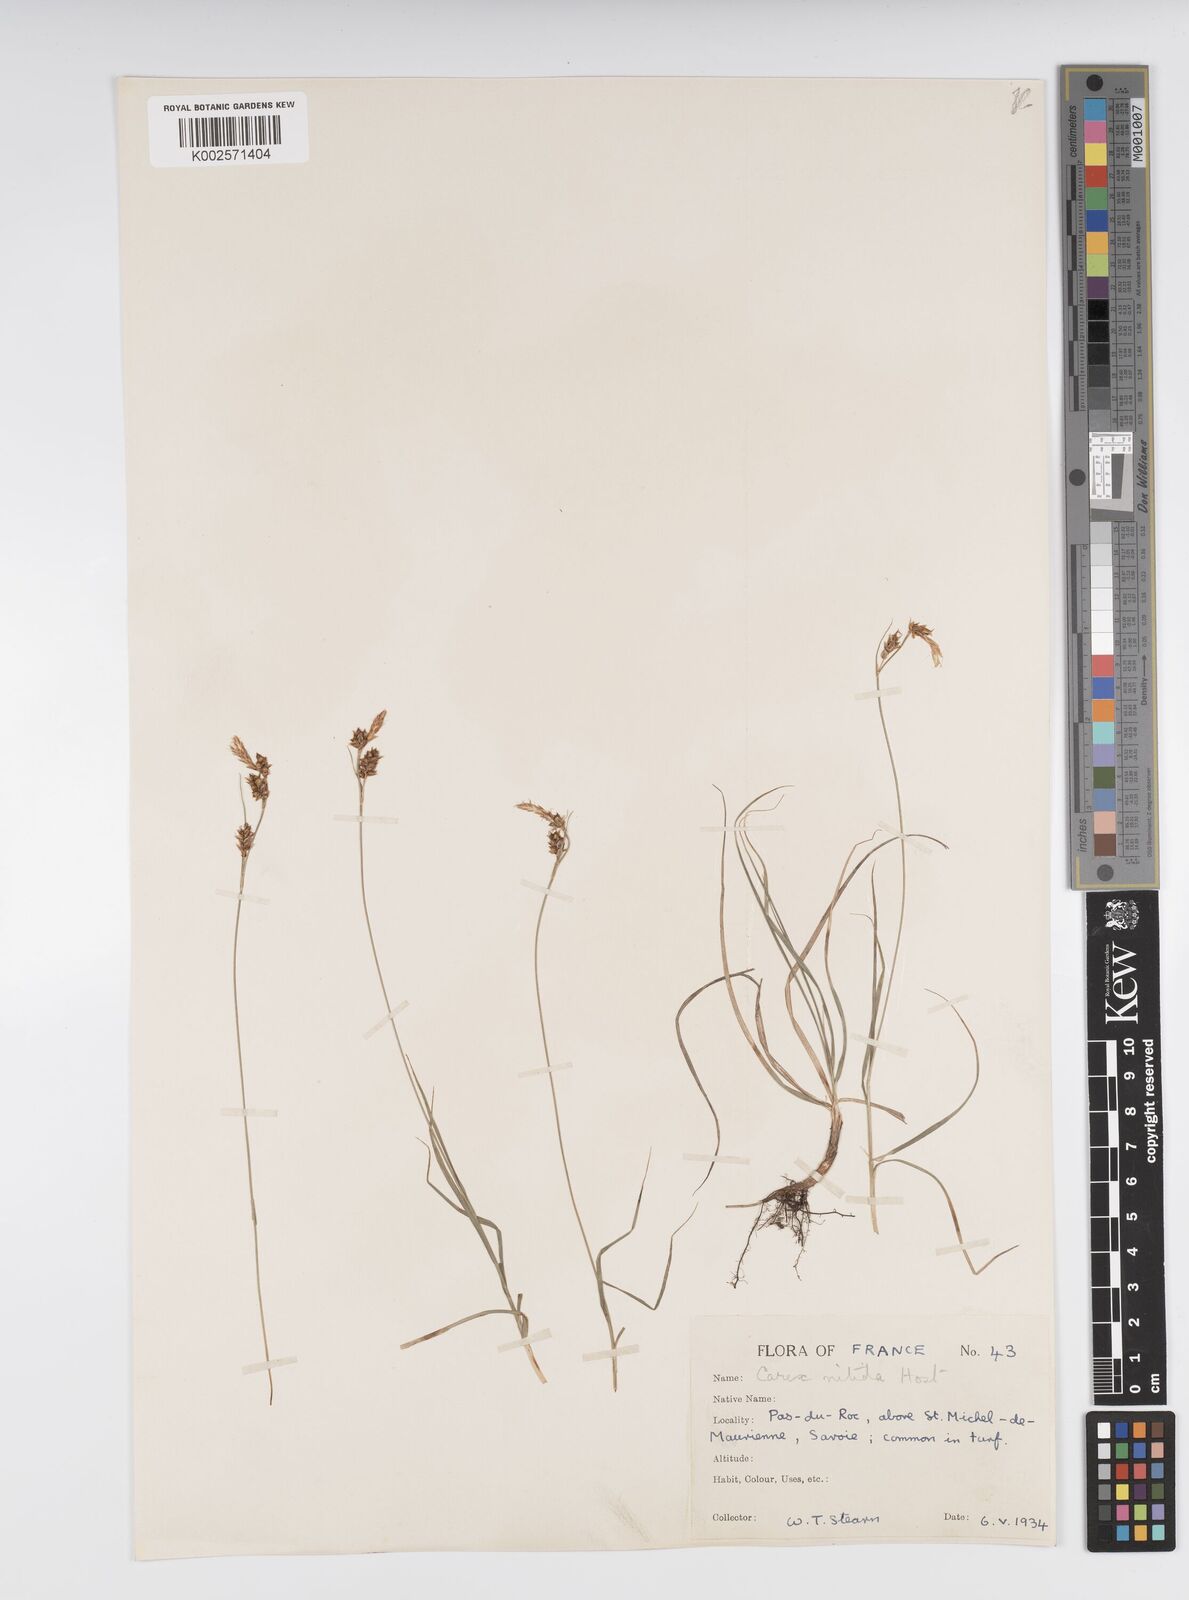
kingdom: Plantae
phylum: Tracheophyta
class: Liliopsida
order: Poales
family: Cyperaceae
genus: Carex
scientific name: Carex liparocarpos
